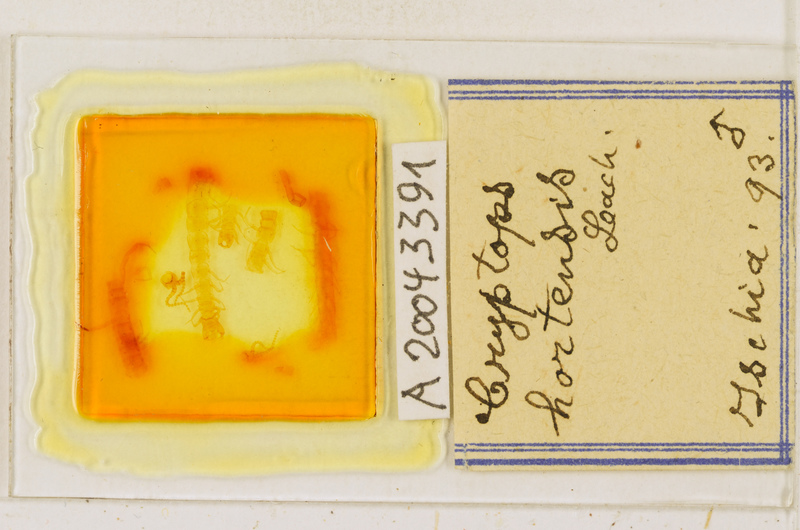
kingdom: Animalia
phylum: Arthropoda
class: Chilopoda
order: Scolopendromorpha
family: Cryptopidae
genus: Cryptops
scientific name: Cryptops hortensis
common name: Centipede
